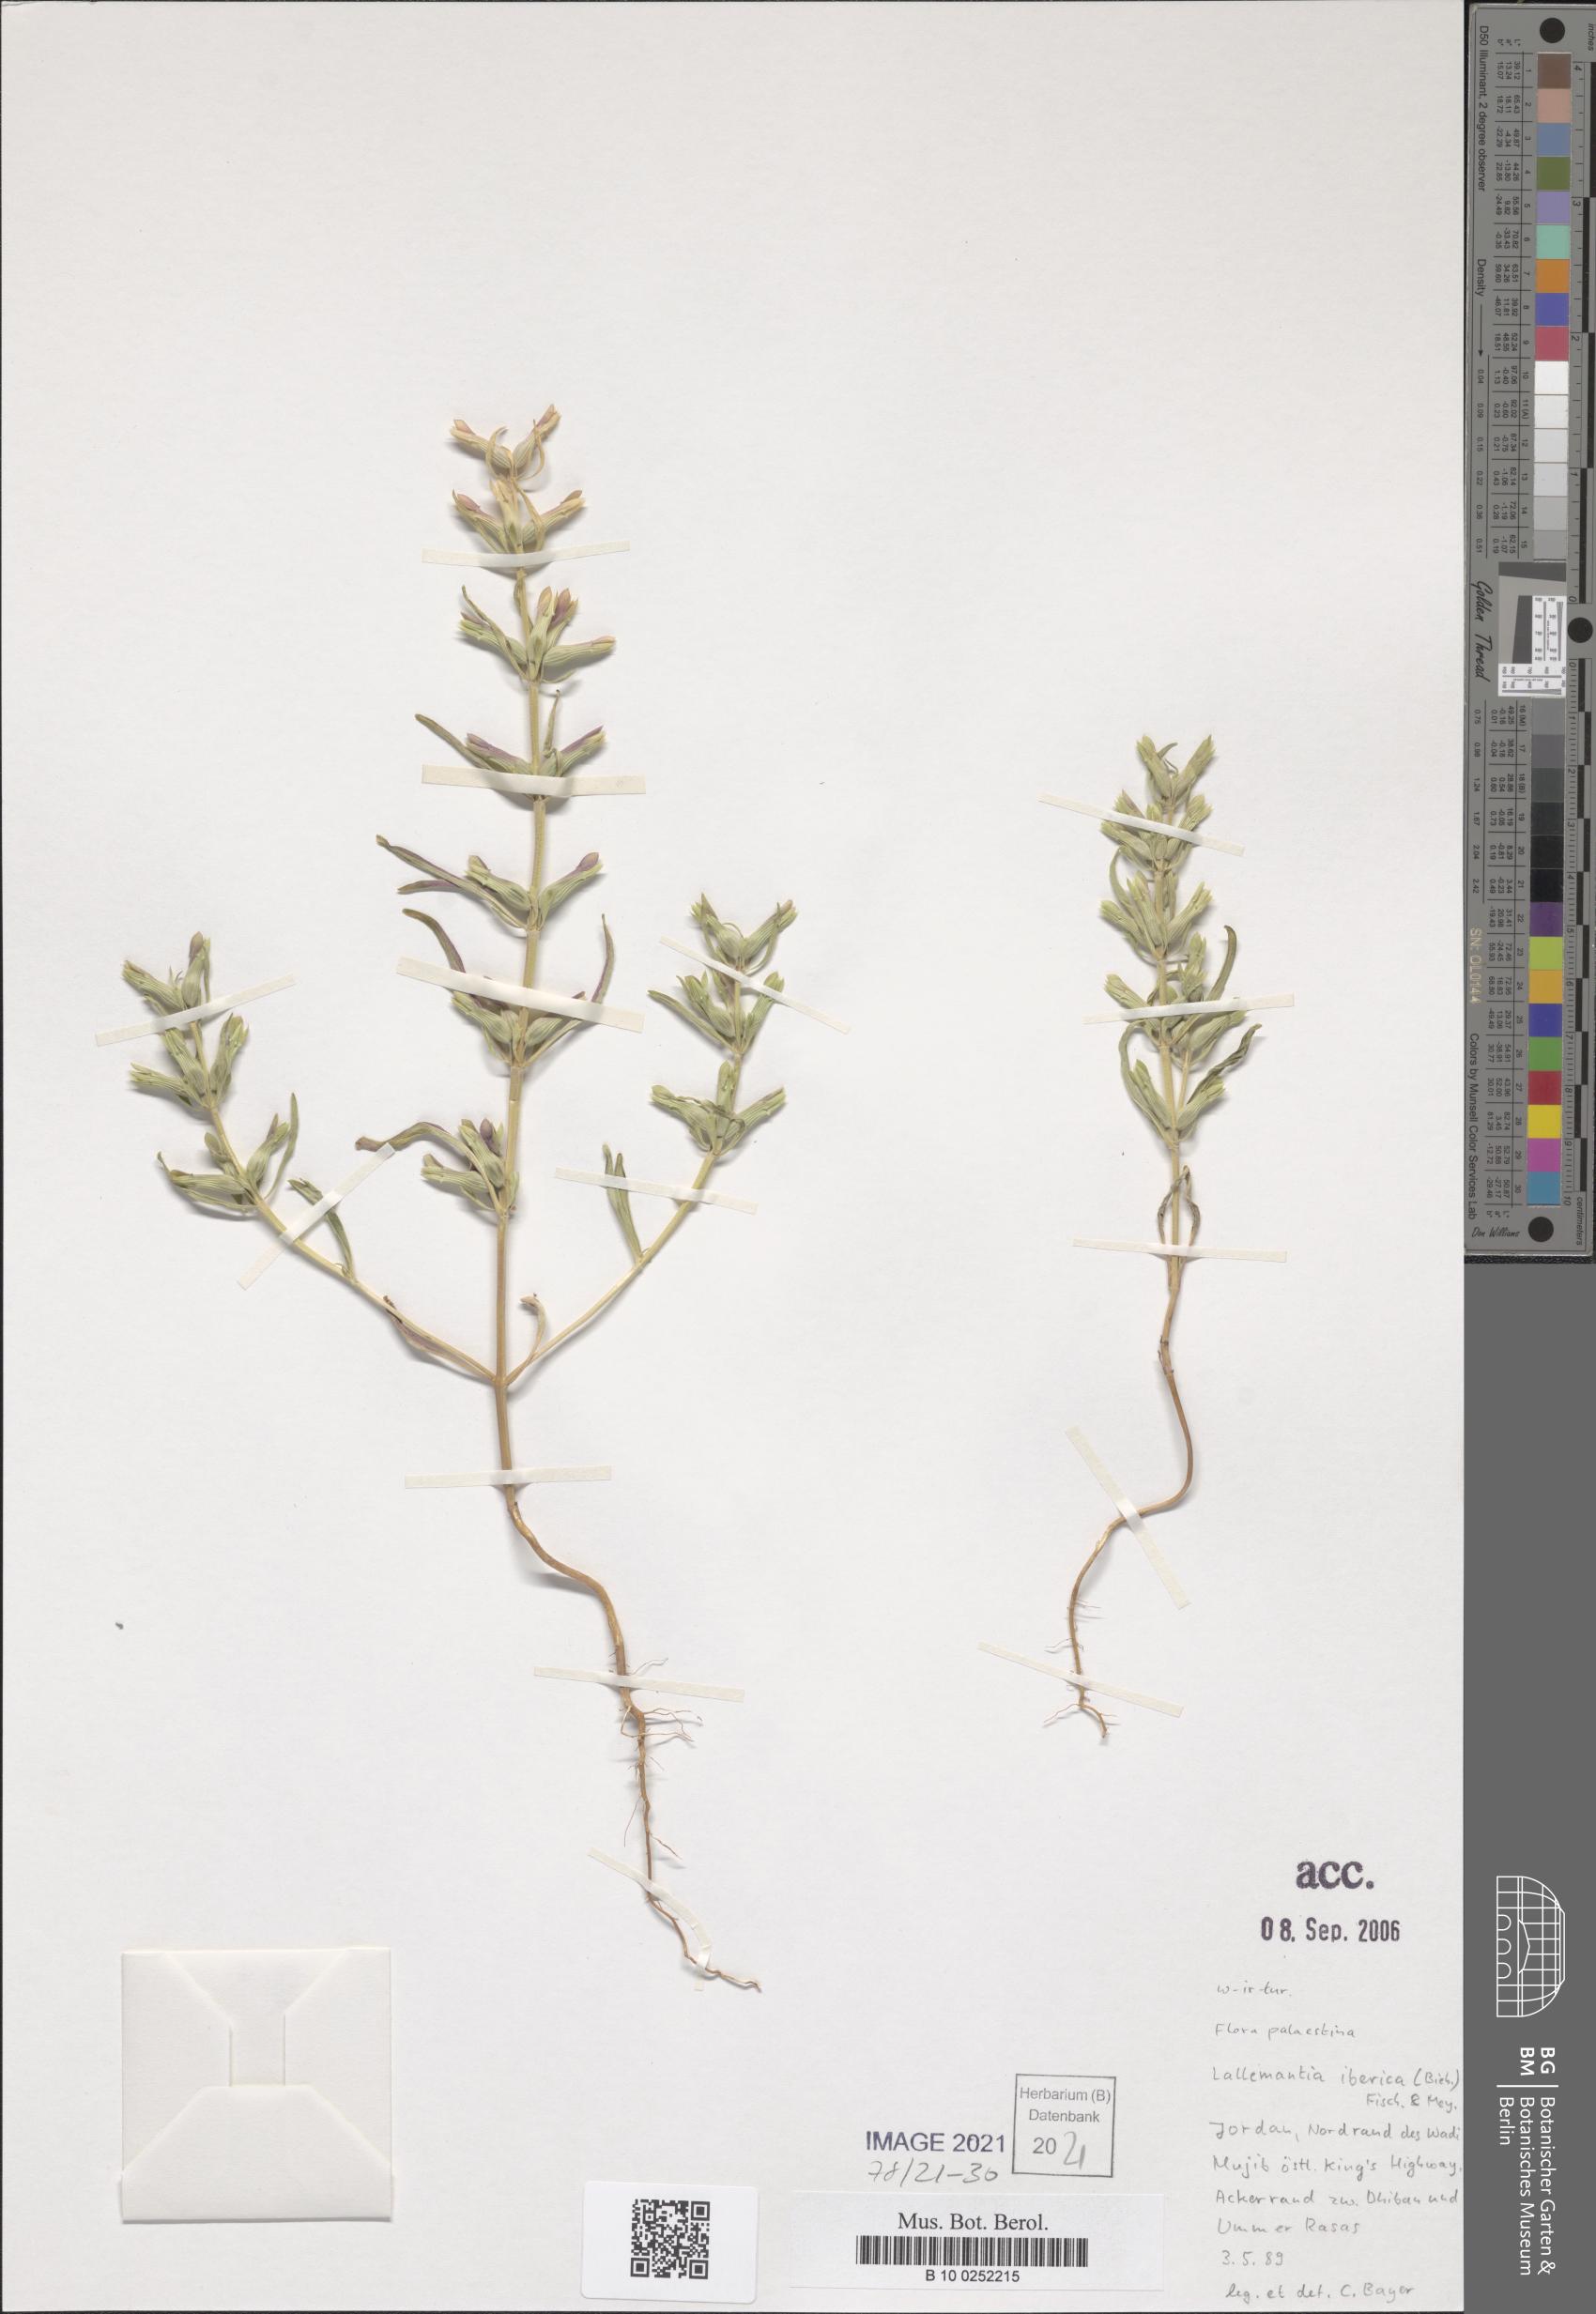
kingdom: Plantae
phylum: Tracheophyta
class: Magnoliopsida
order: Lamiales
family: Lamiaceae
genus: Lallemantia
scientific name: Lallemantia iberica
